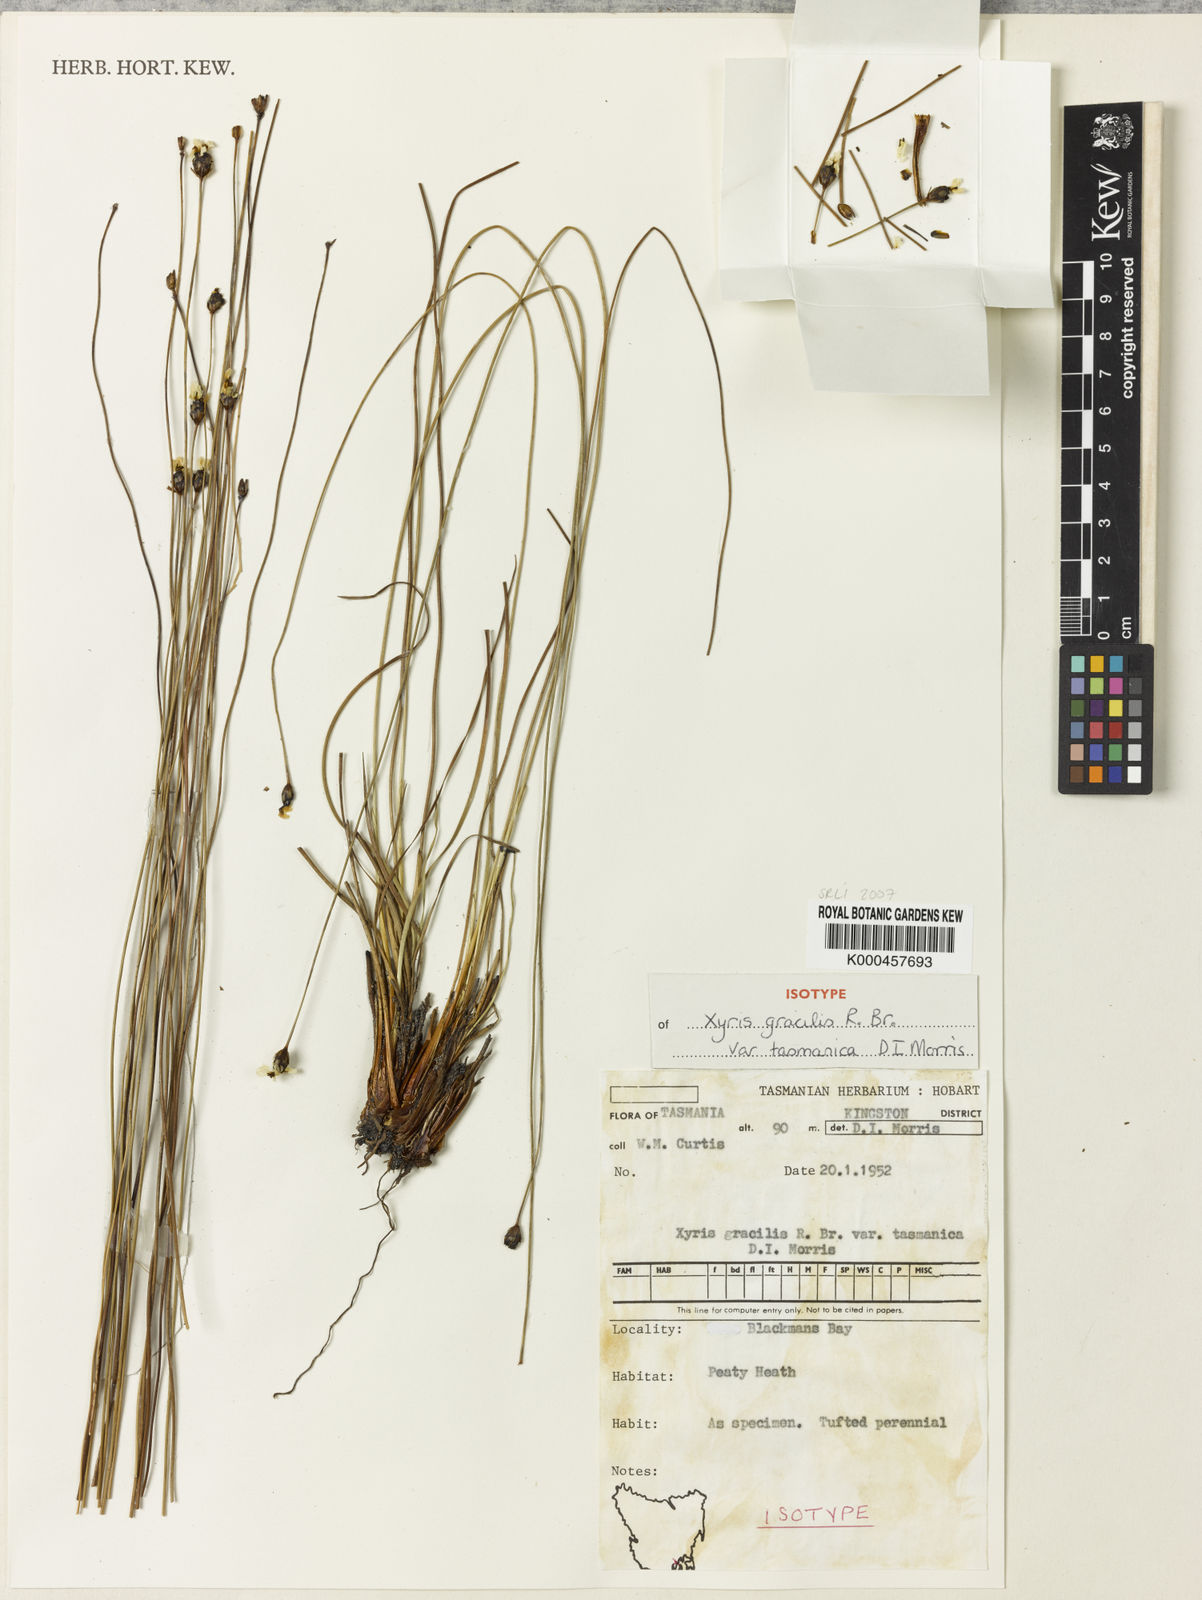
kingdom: Plantae
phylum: Tracheophyta
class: Liliopsida
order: Poales
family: Xyridaceae
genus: Xyris
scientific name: Xyris tasmanica
